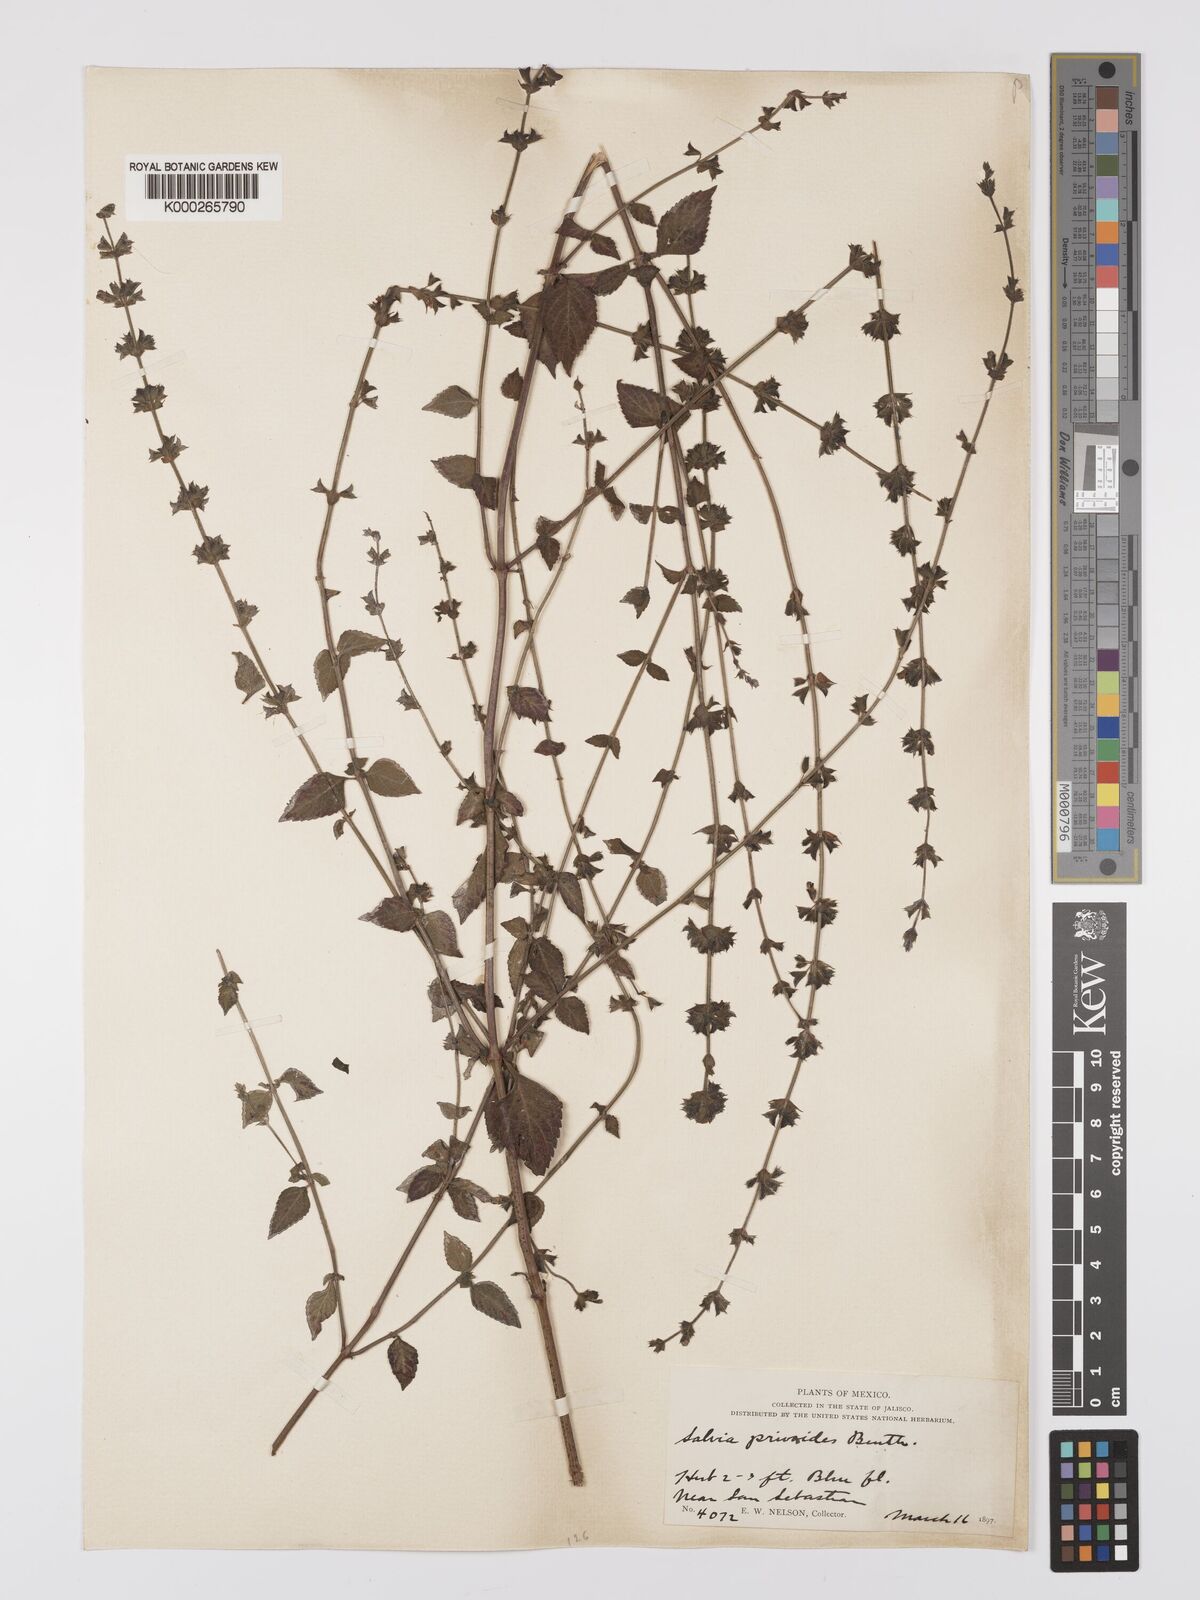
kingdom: Plantae
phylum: Tracheophyta
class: Magnoliopsida
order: Lamiales
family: Lamiaceae
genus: Salvia
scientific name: Salvia misella
